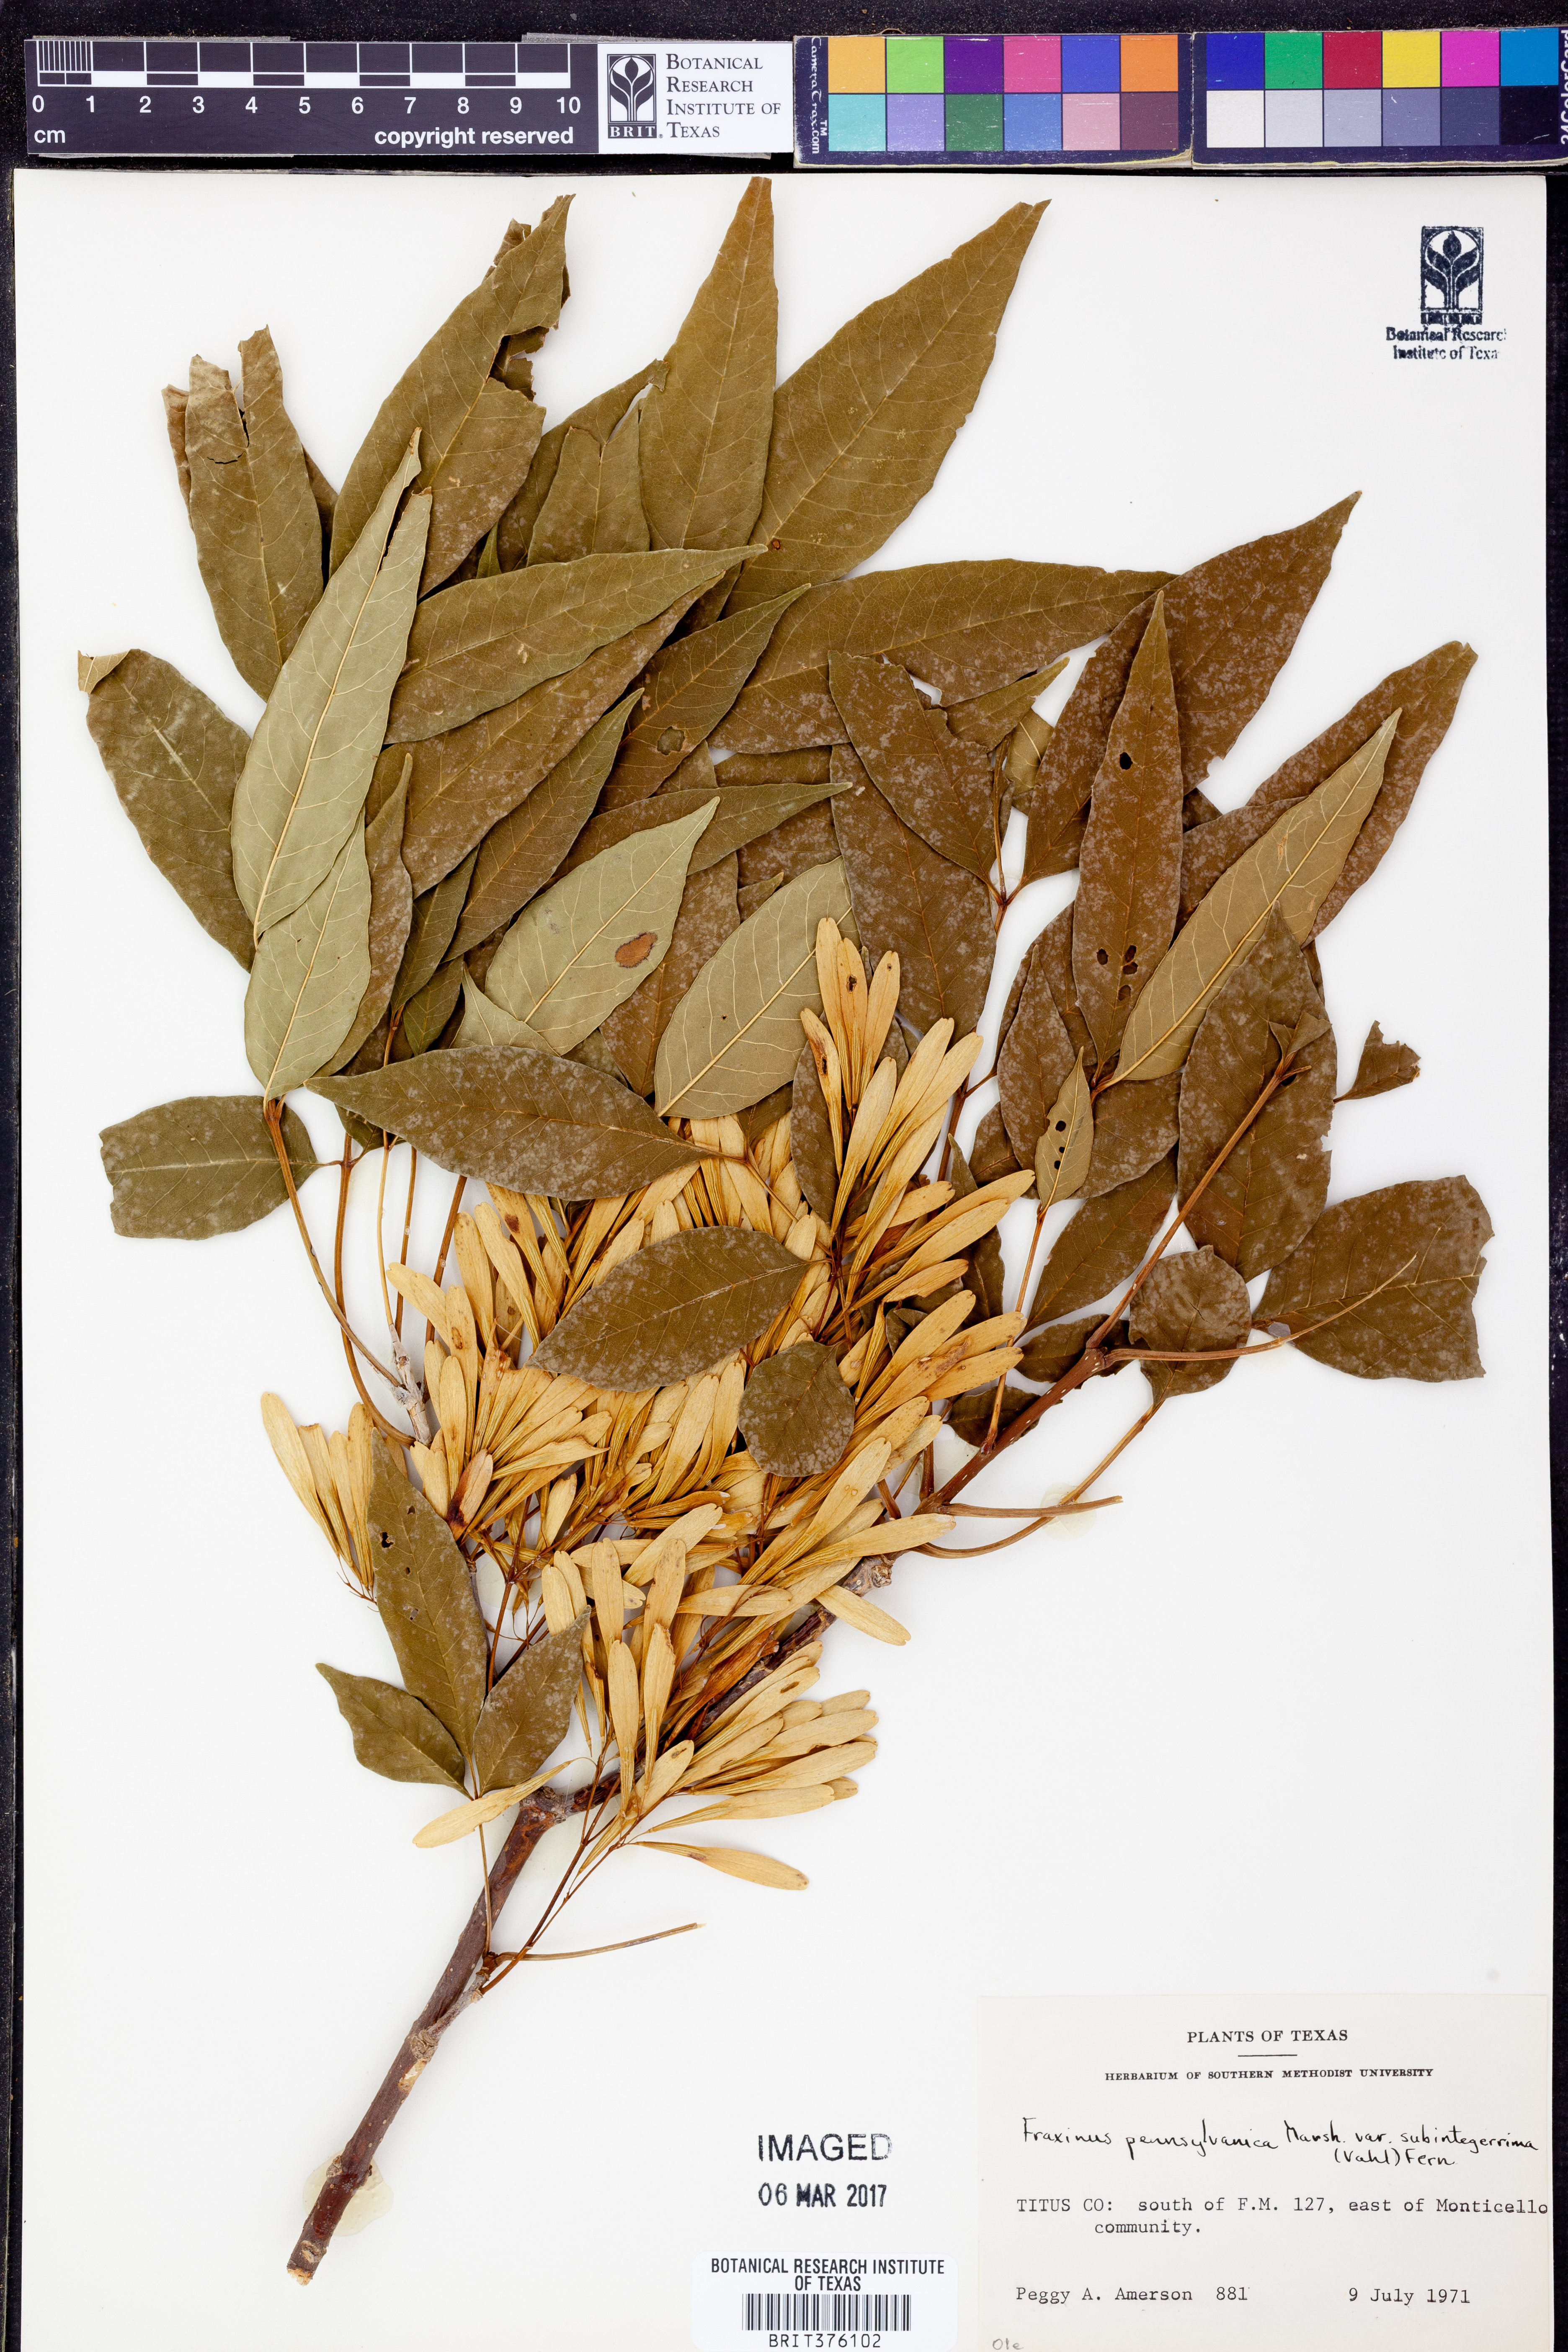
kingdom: Plantae
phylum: Tracheophyta
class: Magnoliopsida
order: Lamiales
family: Oleaceae
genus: Fraxinus
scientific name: Fraxinus pennsylvanica
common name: Green ash
